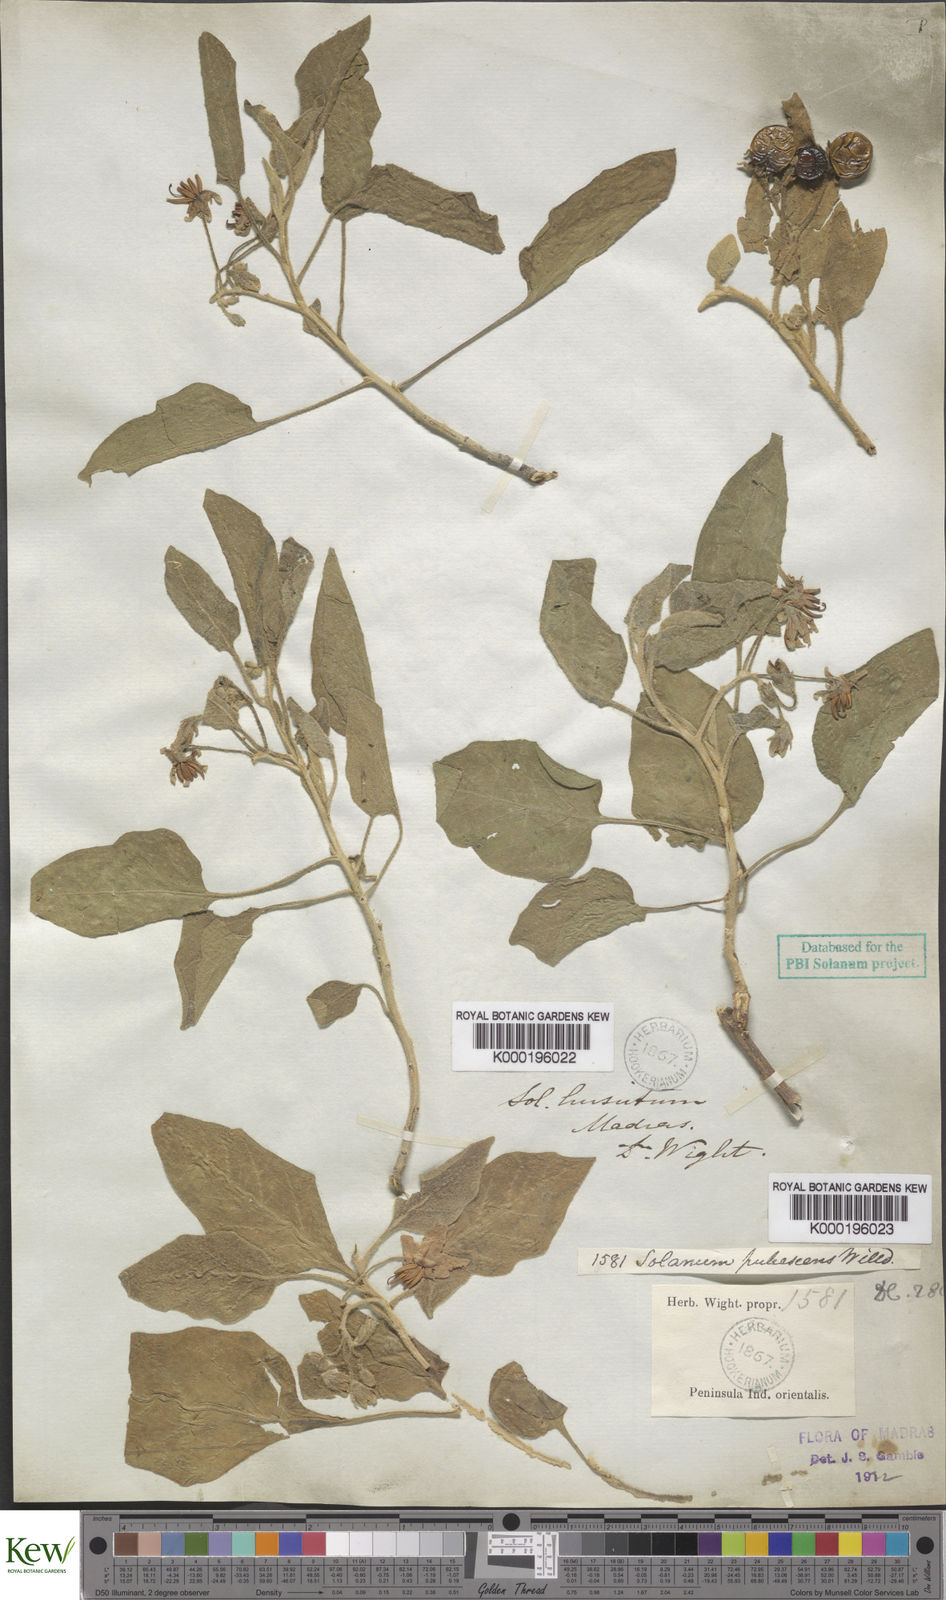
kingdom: Plantae
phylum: Tracheophyta
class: Magnoliopsida
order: Solanales
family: Solanaceae
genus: Solanum
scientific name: Solanum pubescens
